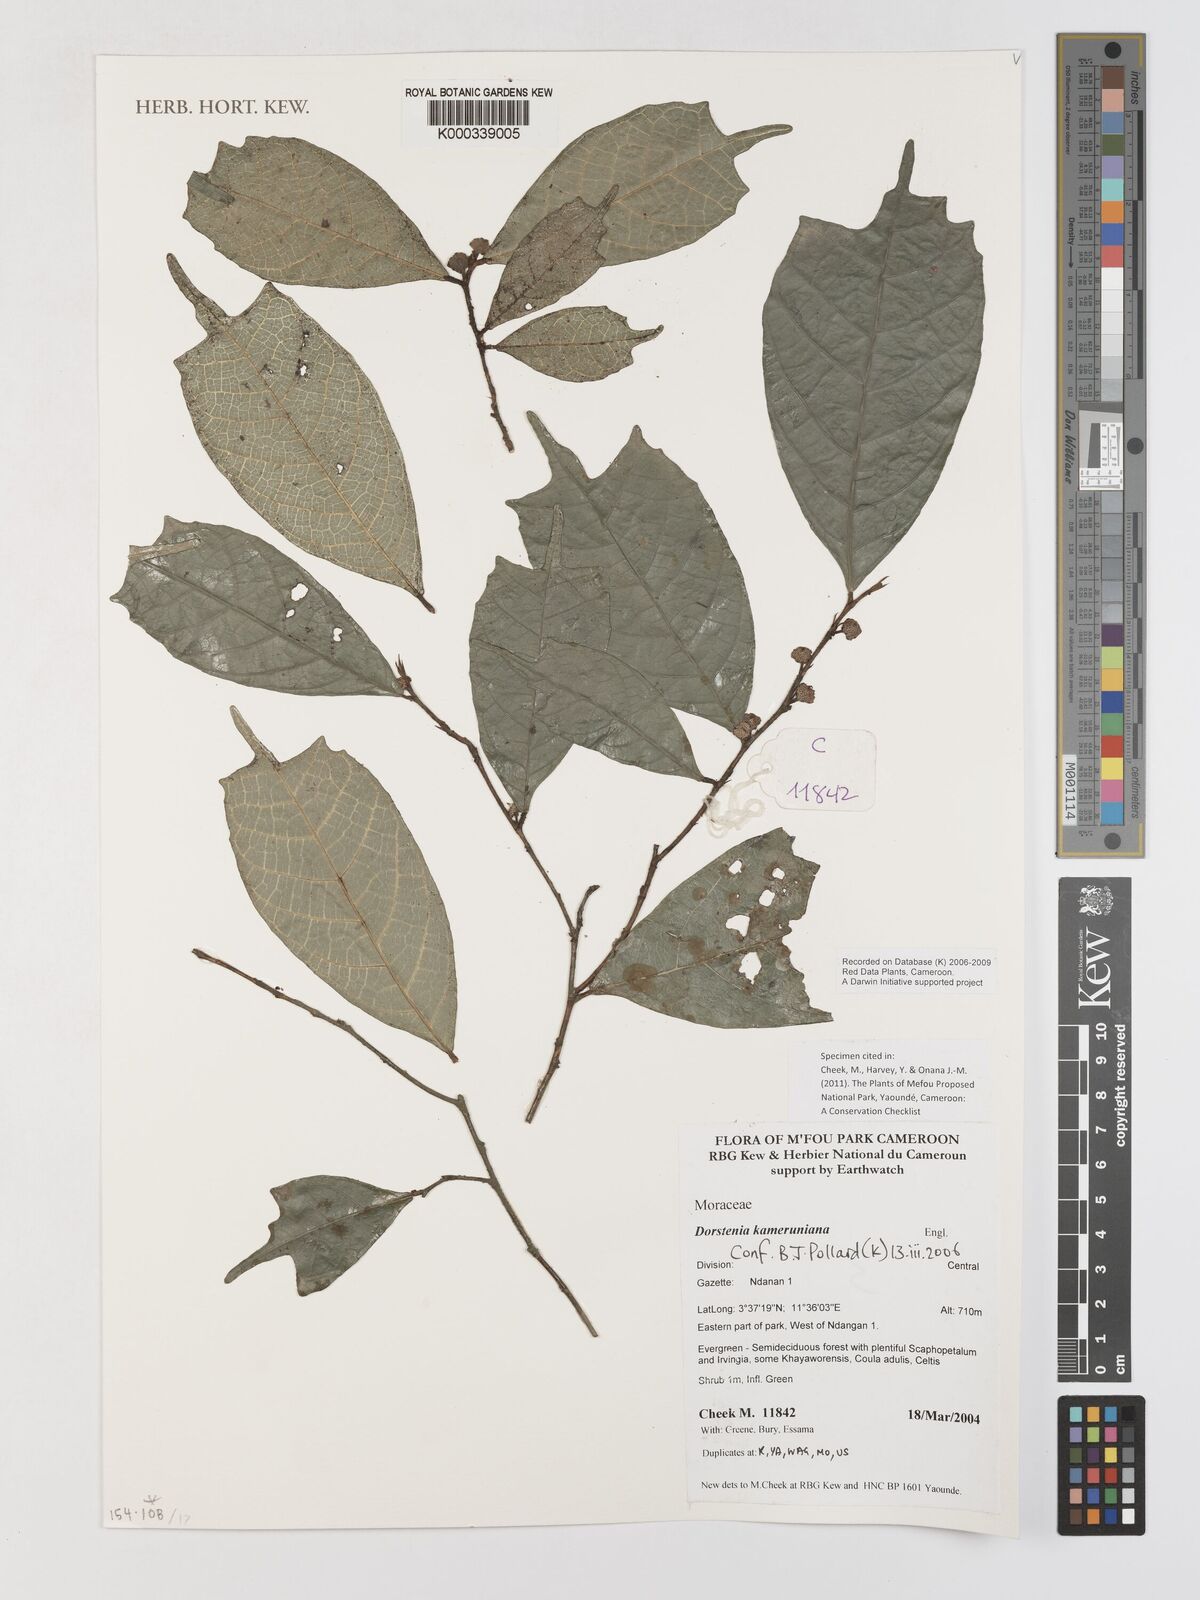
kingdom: Plantae
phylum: Tracheophyta
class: Magnoliopsida
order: Rosales
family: Moraceae
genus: Dorstenia
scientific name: Dorstenia kameruniana
